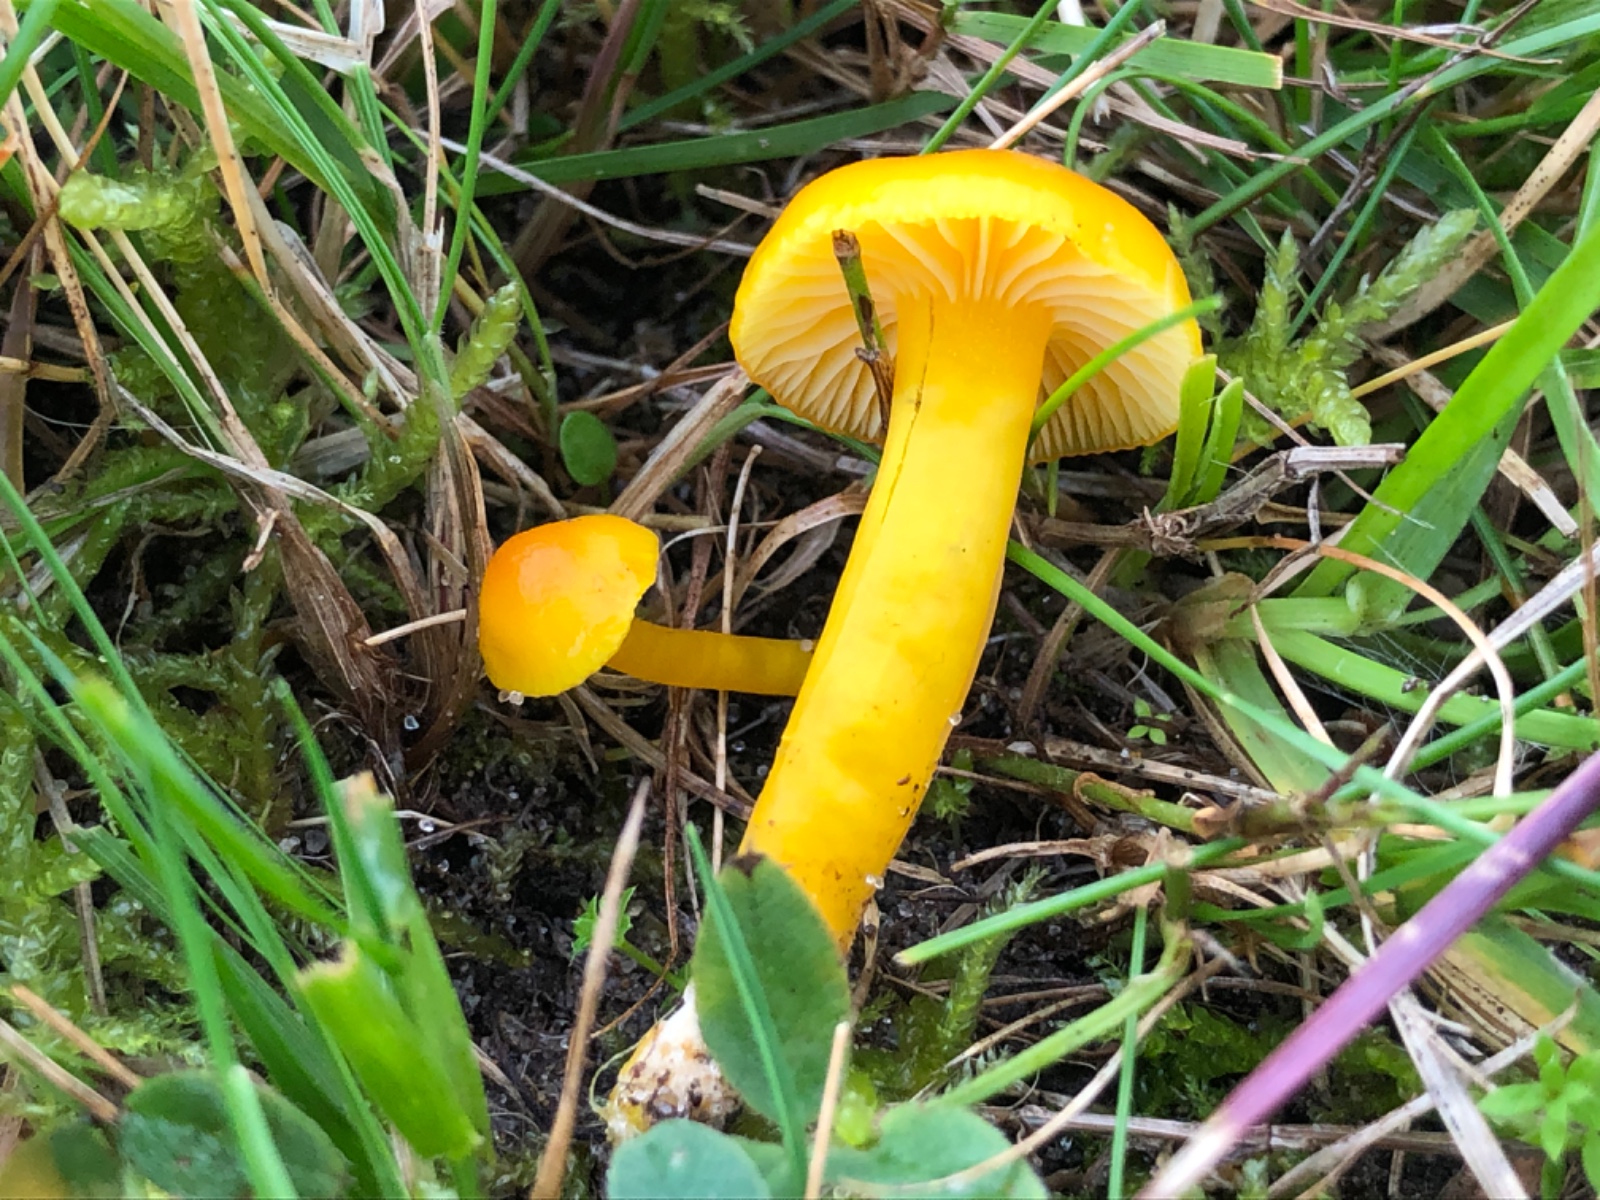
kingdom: Fungi
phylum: Basidiomycota
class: Agaricomycetes
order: Agaricales
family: Hygrophoraceae
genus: Hygrocybe
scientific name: Hygrocybe ceracea
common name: voksgul vokshat
